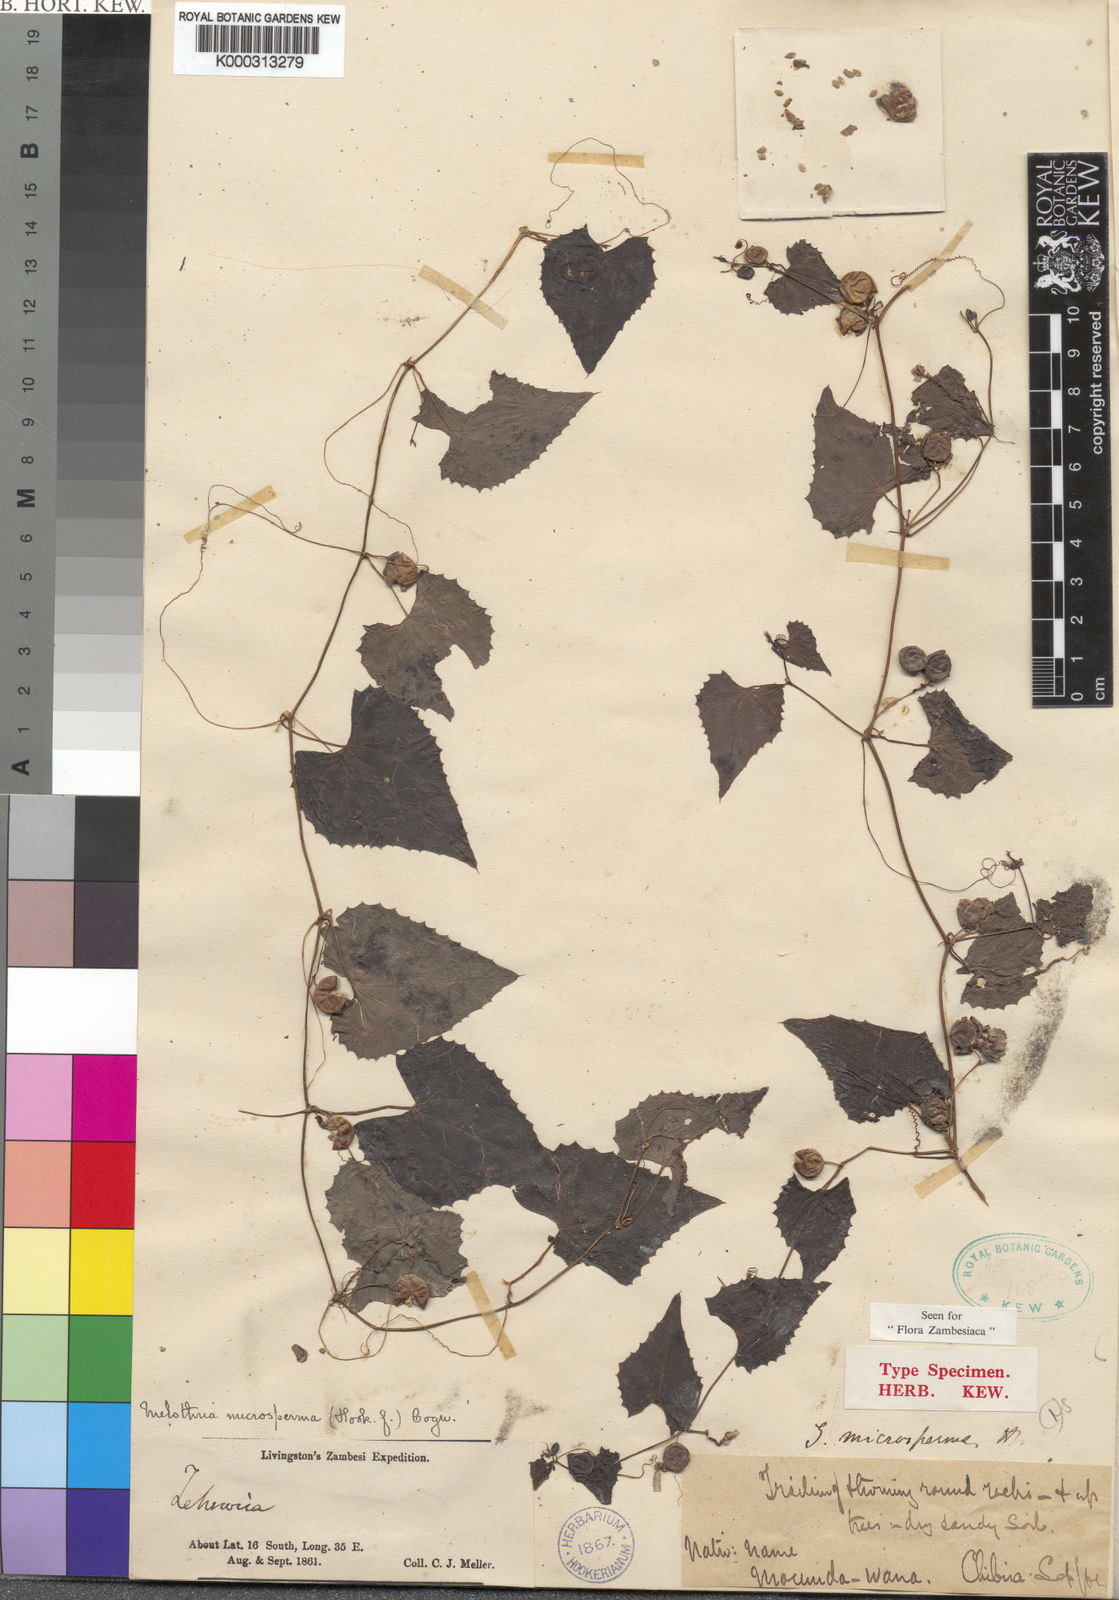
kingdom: Plantae
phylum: Tracheophyta
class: Magnoliopsida
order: Cucurbitales
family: Cucurbitaceae
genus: Zehneria
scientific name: Zehneria microsperma
